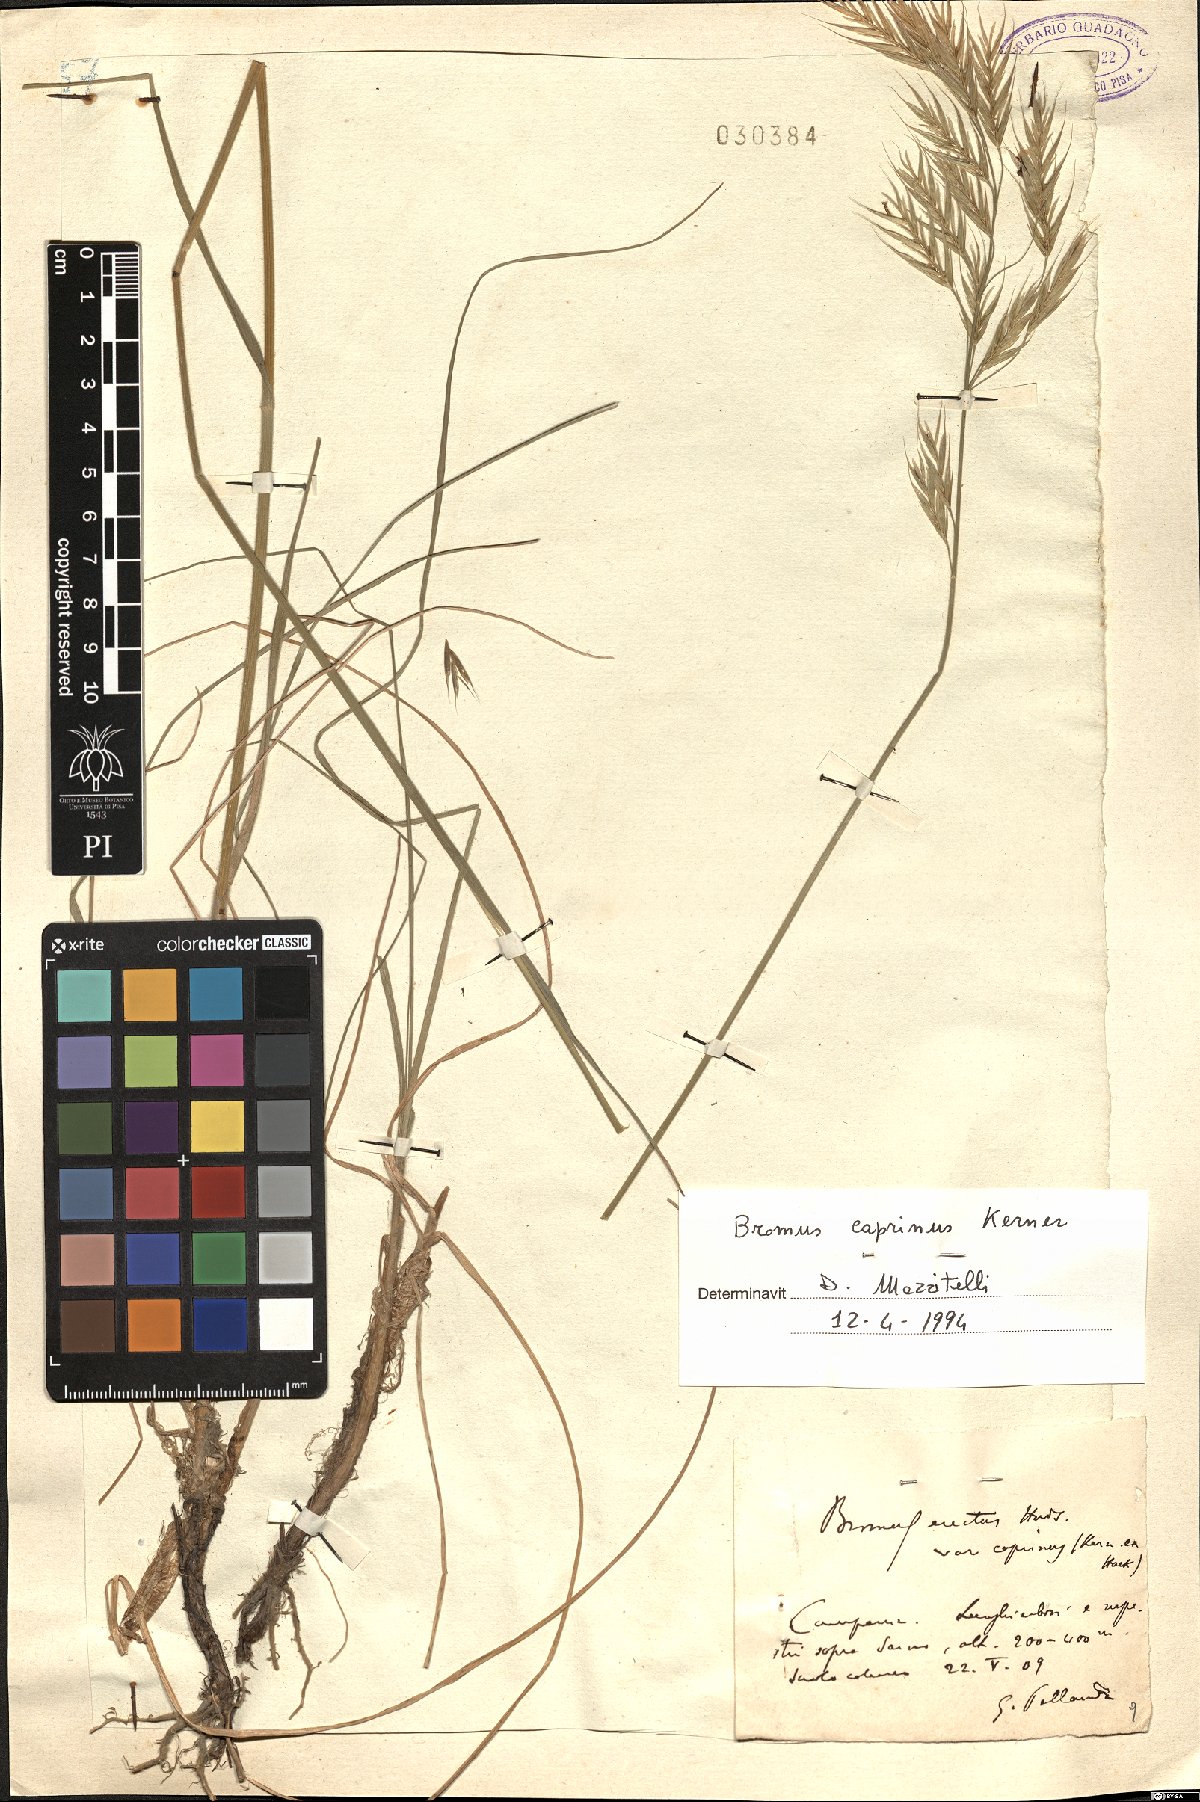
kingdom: Plantae
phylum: Tracheophyta
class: Liliopsida
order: Poales
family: Poaceae
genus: Bromus
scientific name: Bromus erectus
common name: Erect brome
